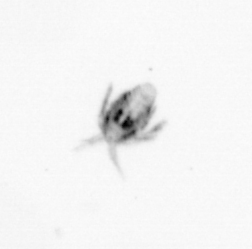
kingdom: Animalia
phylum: Arthropoda
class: Copepoda
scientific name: Copepoda
